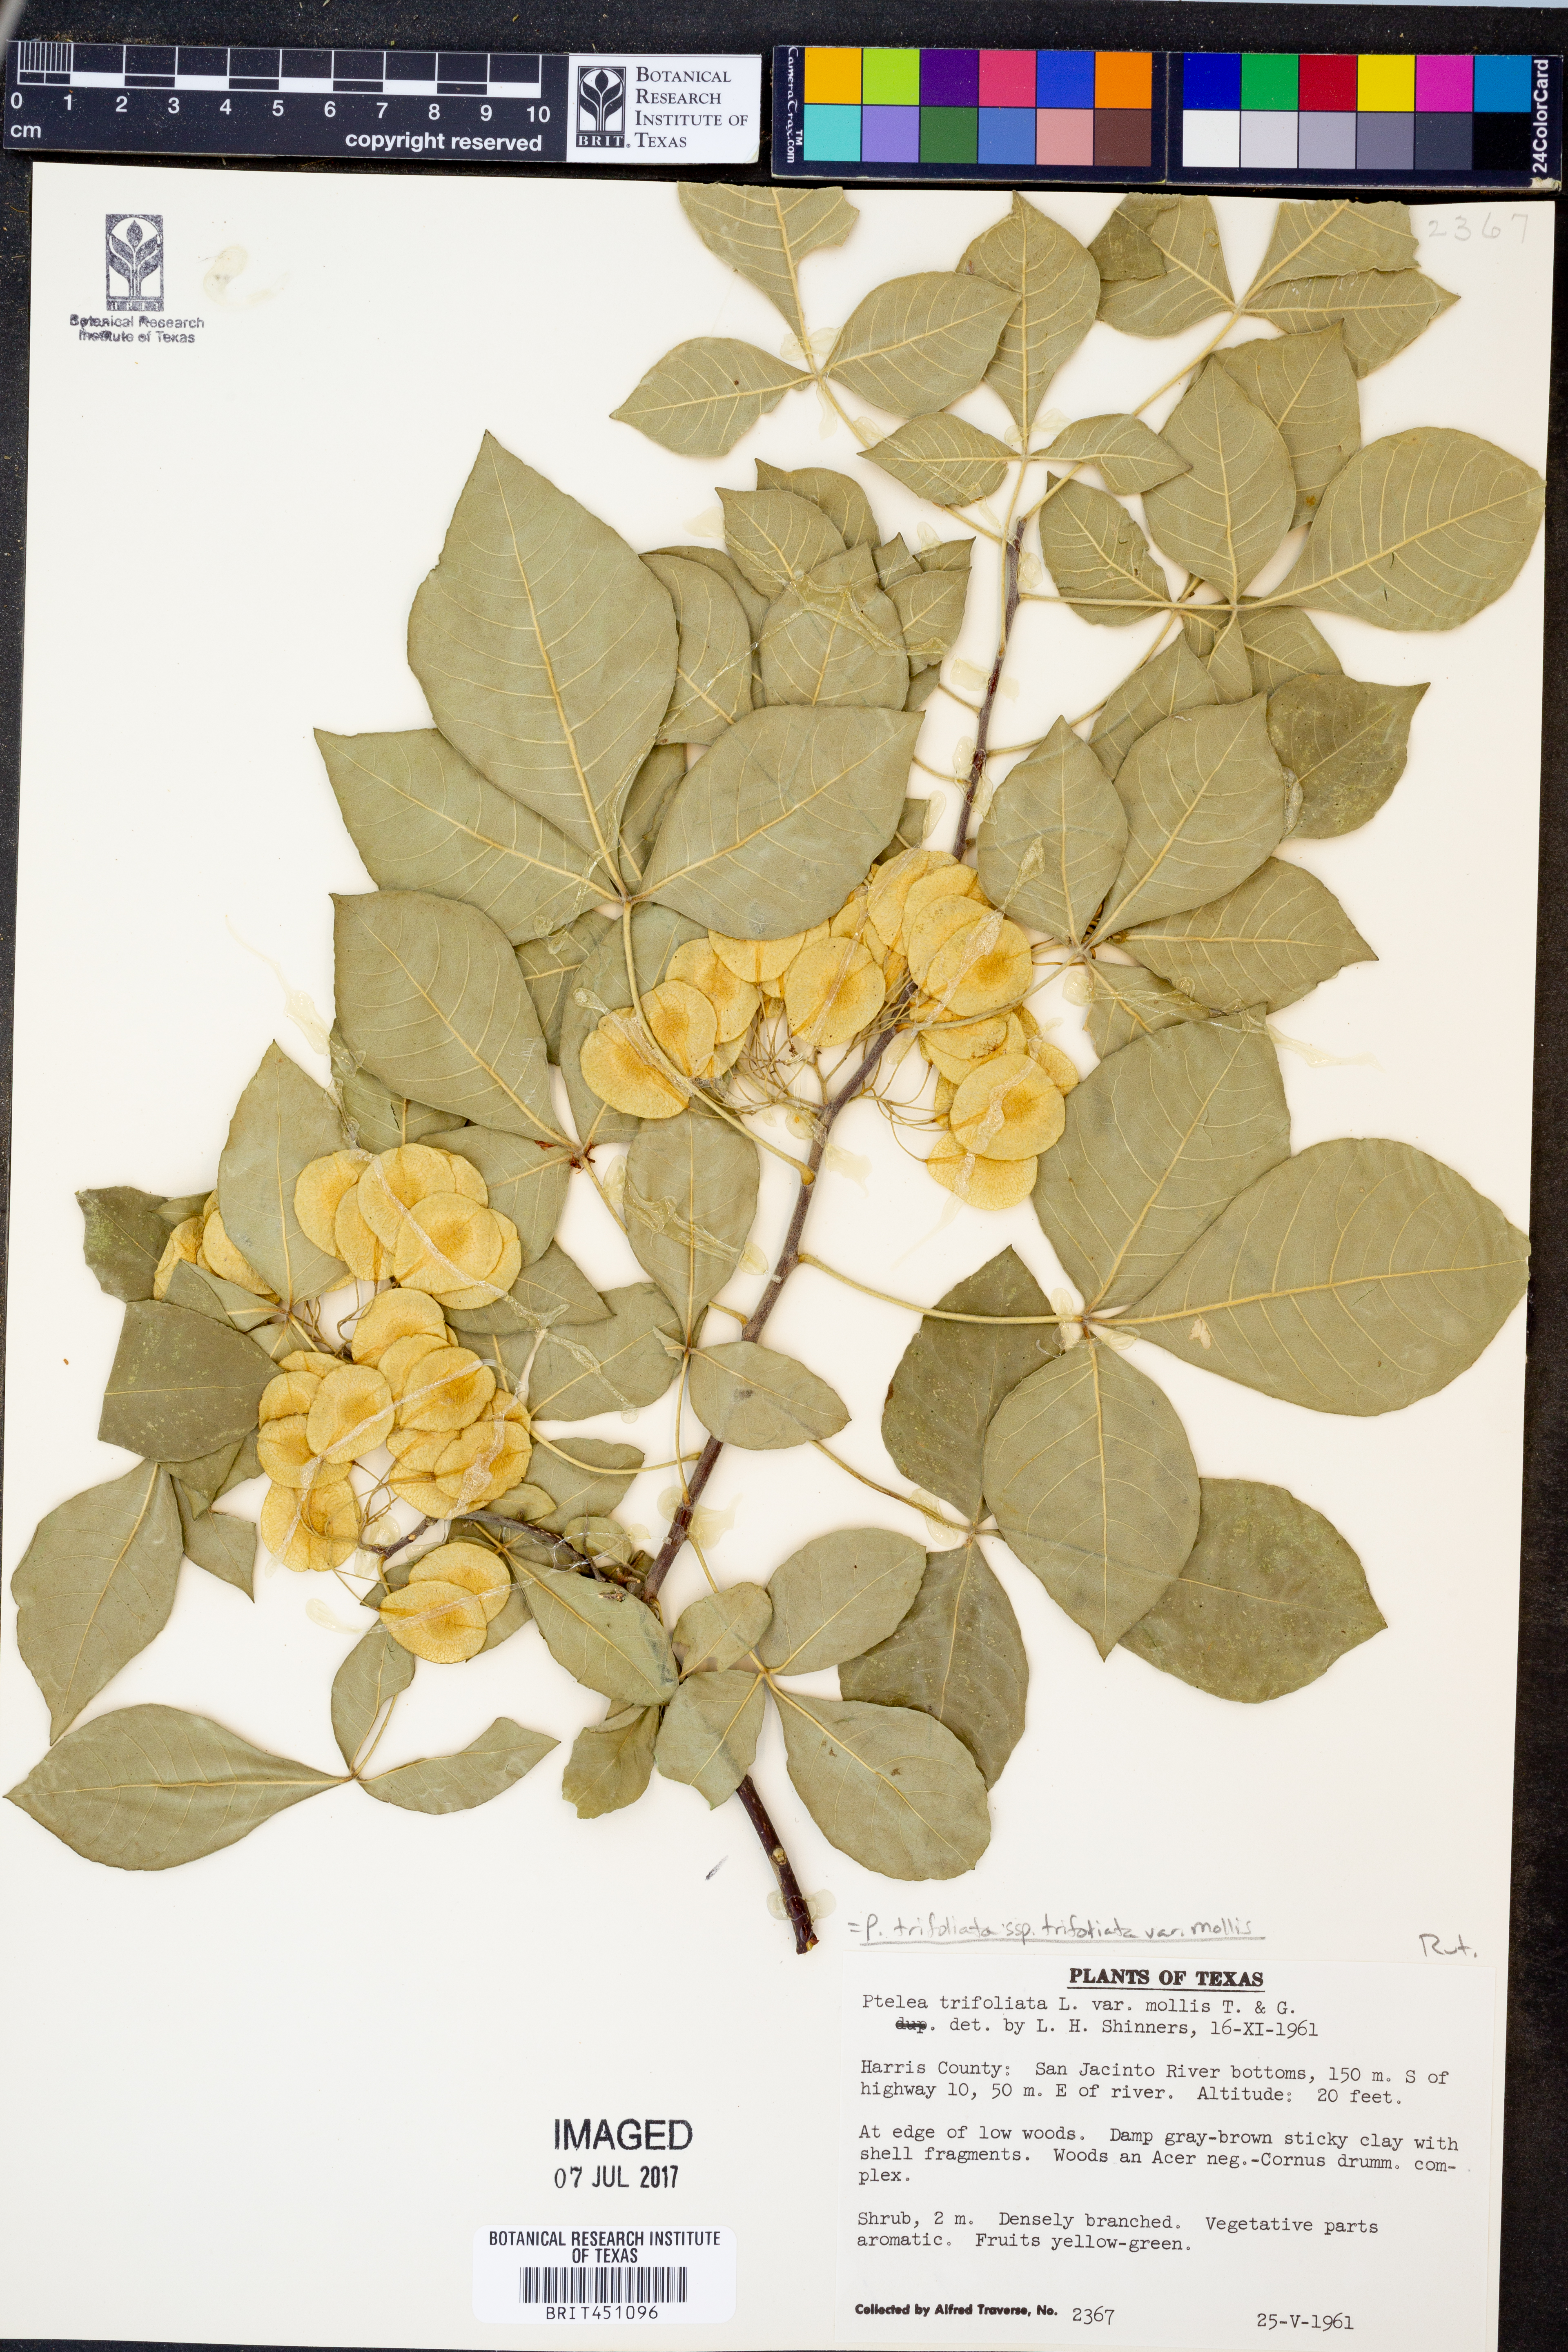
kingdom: Plantae
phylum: Tracheophyta
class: Magnoliopsida
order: Sapindales
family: Rutaceae
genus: Ptelea
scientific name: Ptelea trifoliata
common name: Common hop-tree
